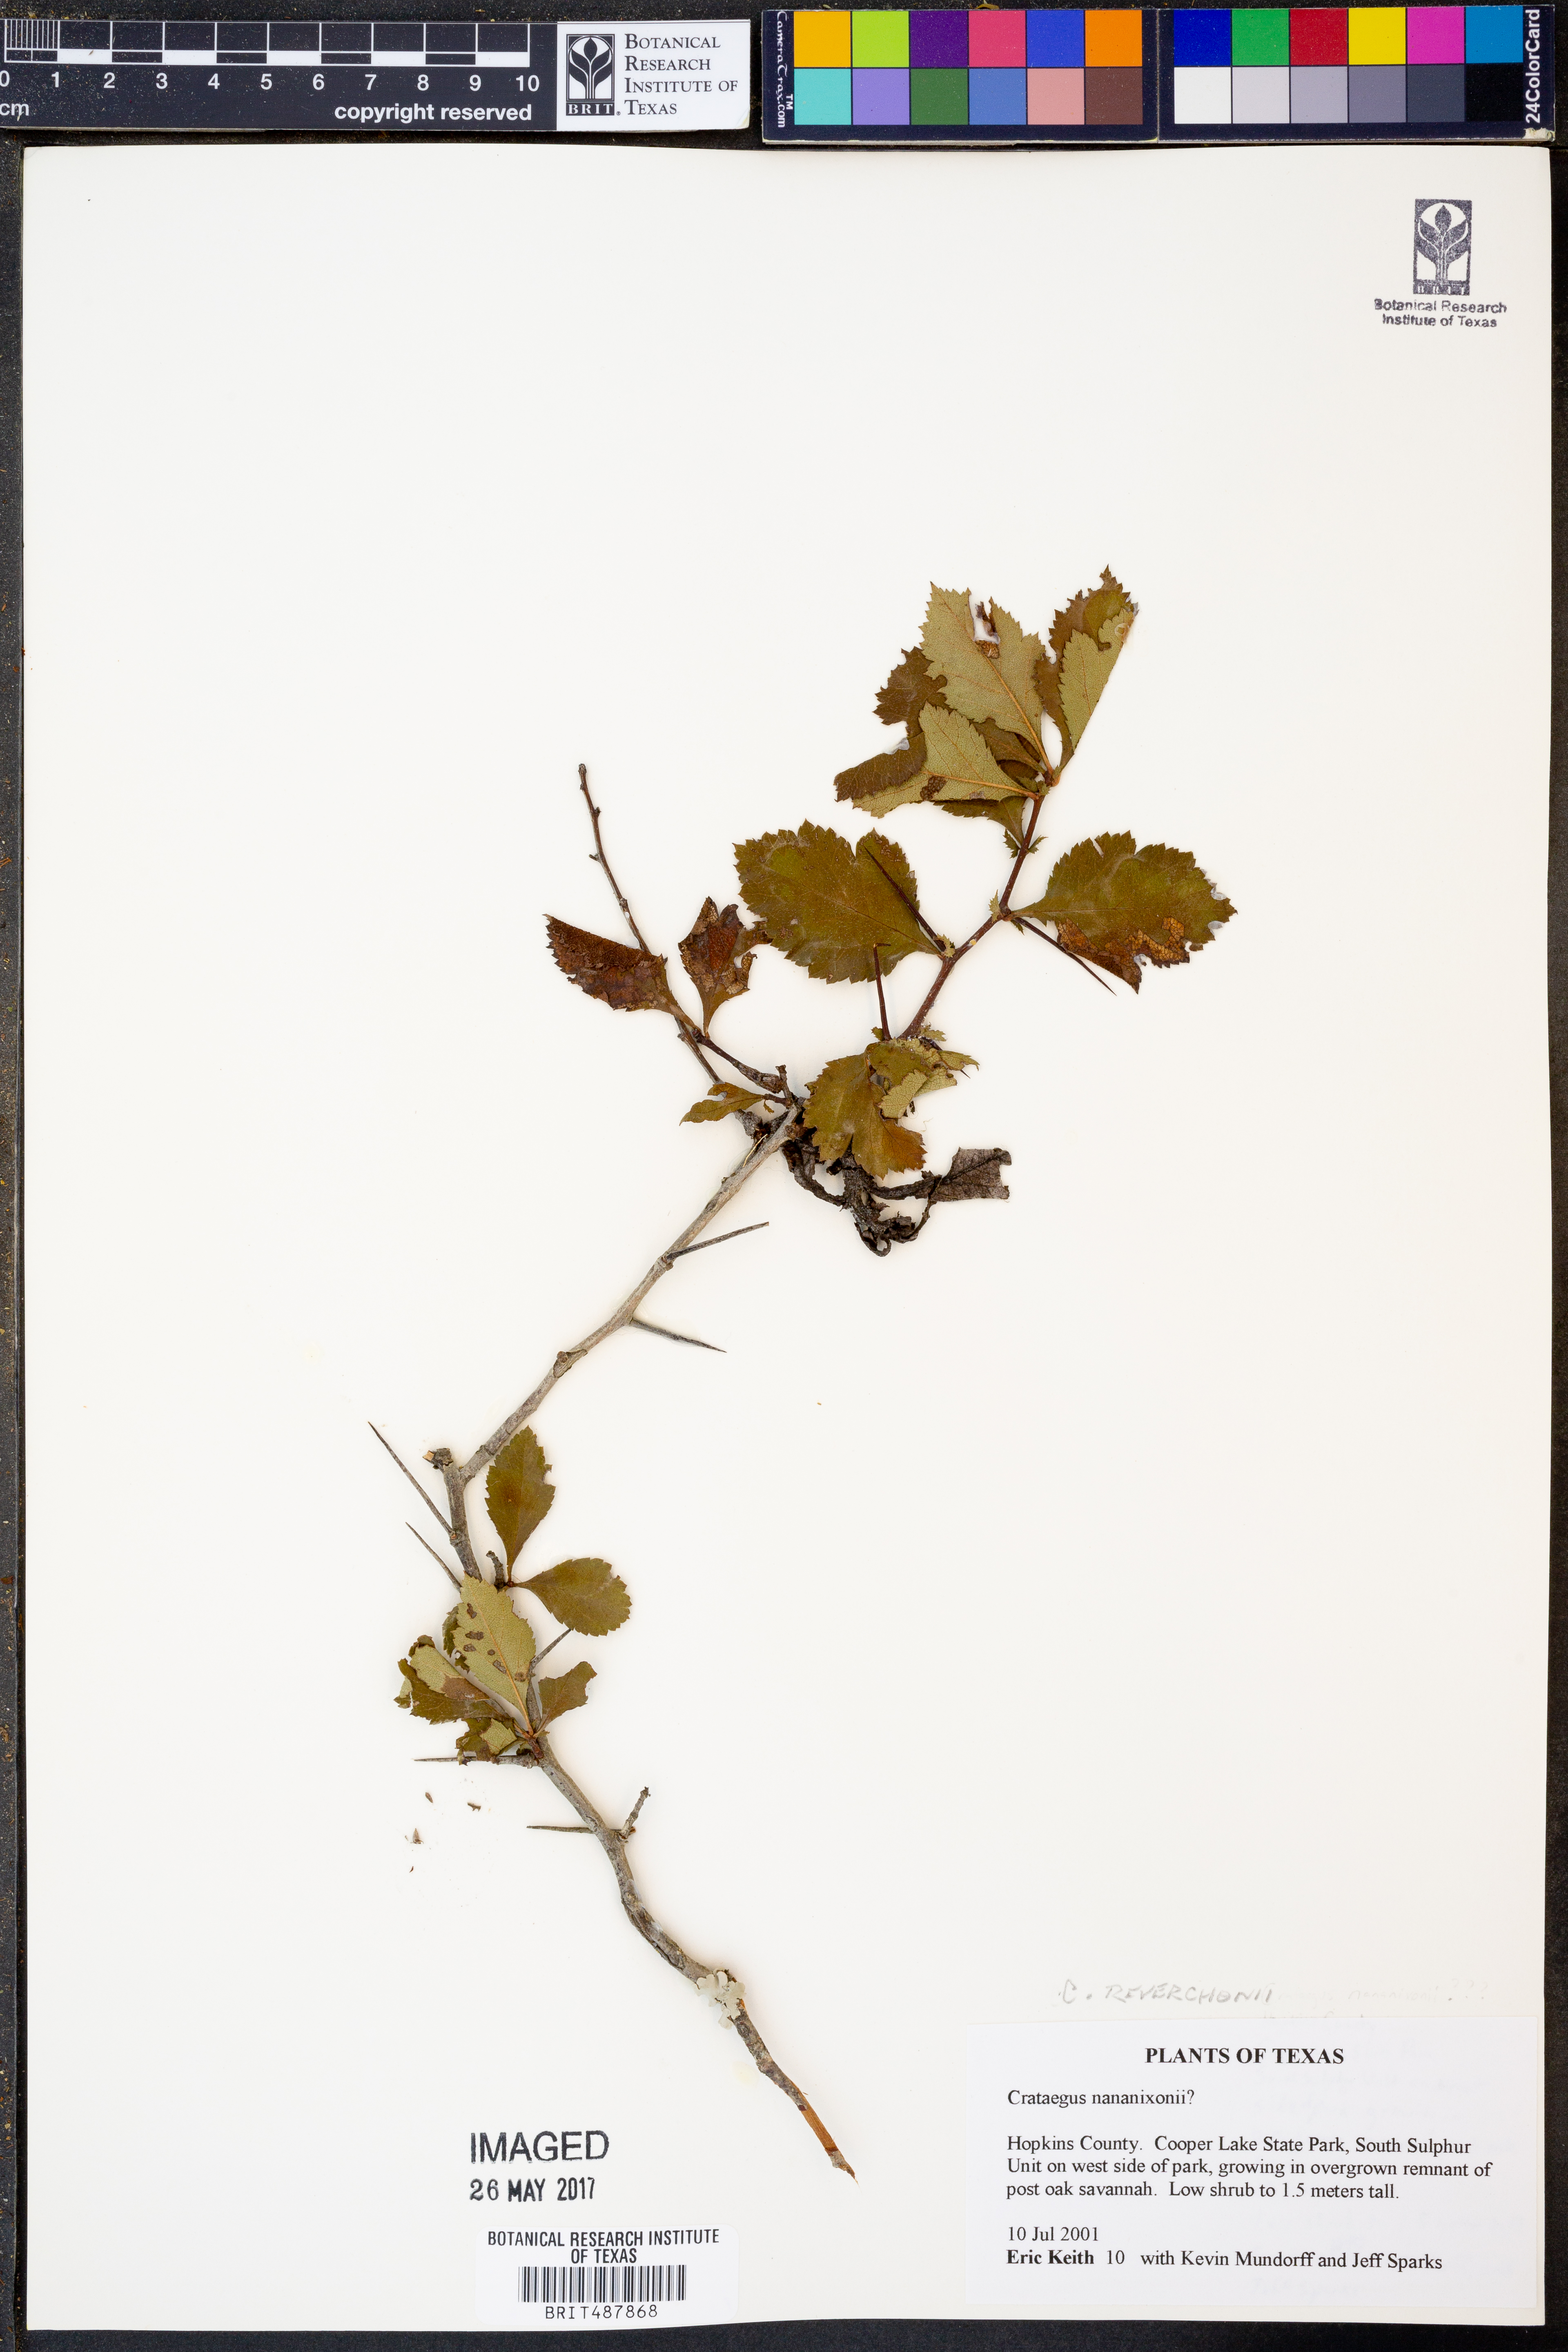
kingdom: Plantae
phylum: Tracheophyta
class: Magnoliopsida
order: Rosales
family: Rosaceae
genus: Crataegus
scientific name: Crataegus reverchonii
